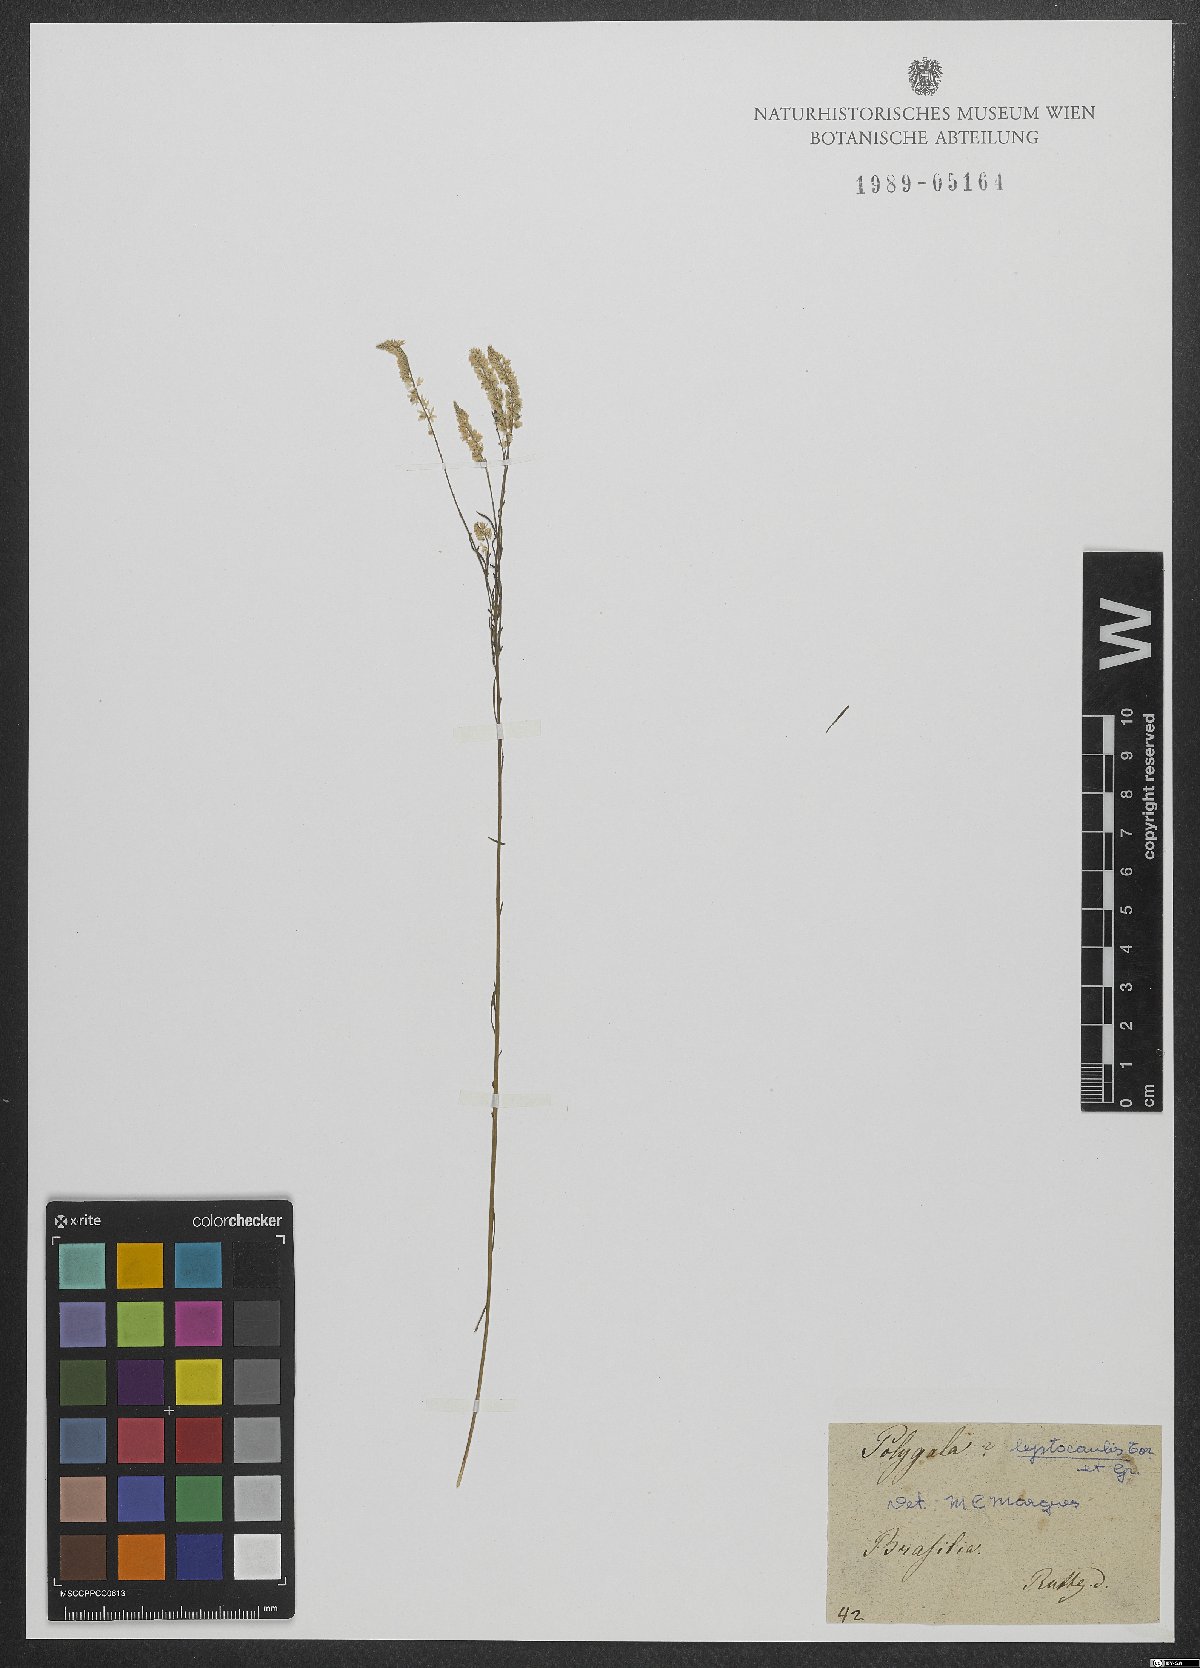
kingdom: Plantae
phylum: Tracheophyta
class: Magnoliopsida
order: Fabales
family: Polygalaceae
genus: Polygala
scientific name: Polygala tenella
